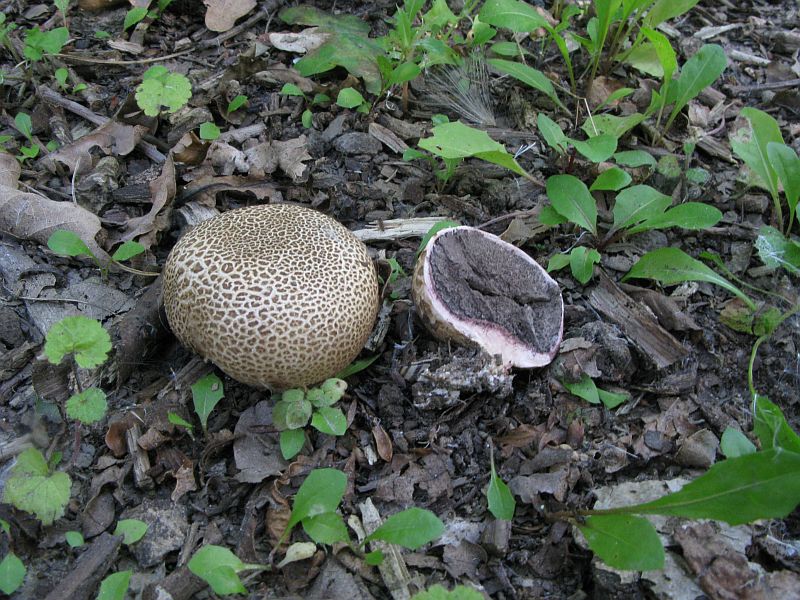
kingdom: Fungi
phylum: Basidiomycota
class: Agaricomycetes
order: Boletales
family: Sclerodermataceae
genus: Scleroderma
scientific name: Scleroderma citrinum
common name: almindelig bruskbold
